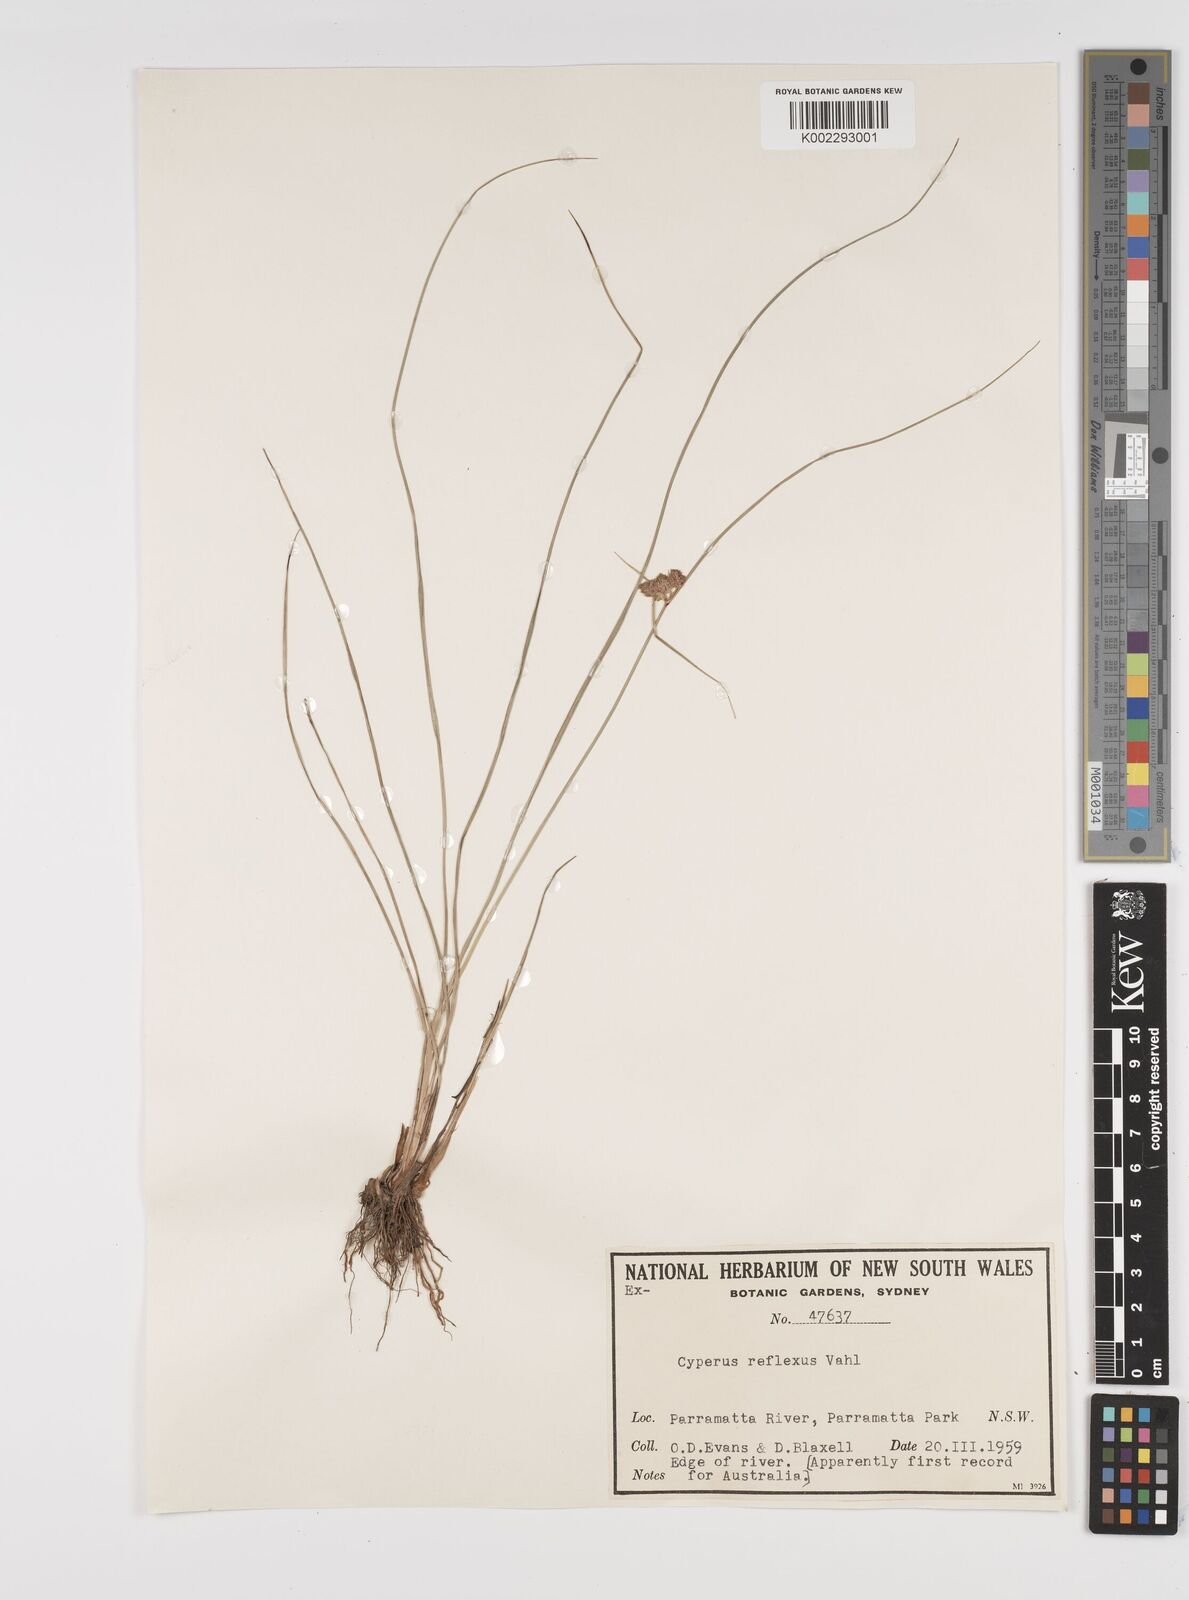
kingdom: Plantae
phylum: Tracheophyta
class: Liliopsida
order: Poales
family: Cyperaceae
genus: Cyperus
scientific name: Cyperus reflexus
